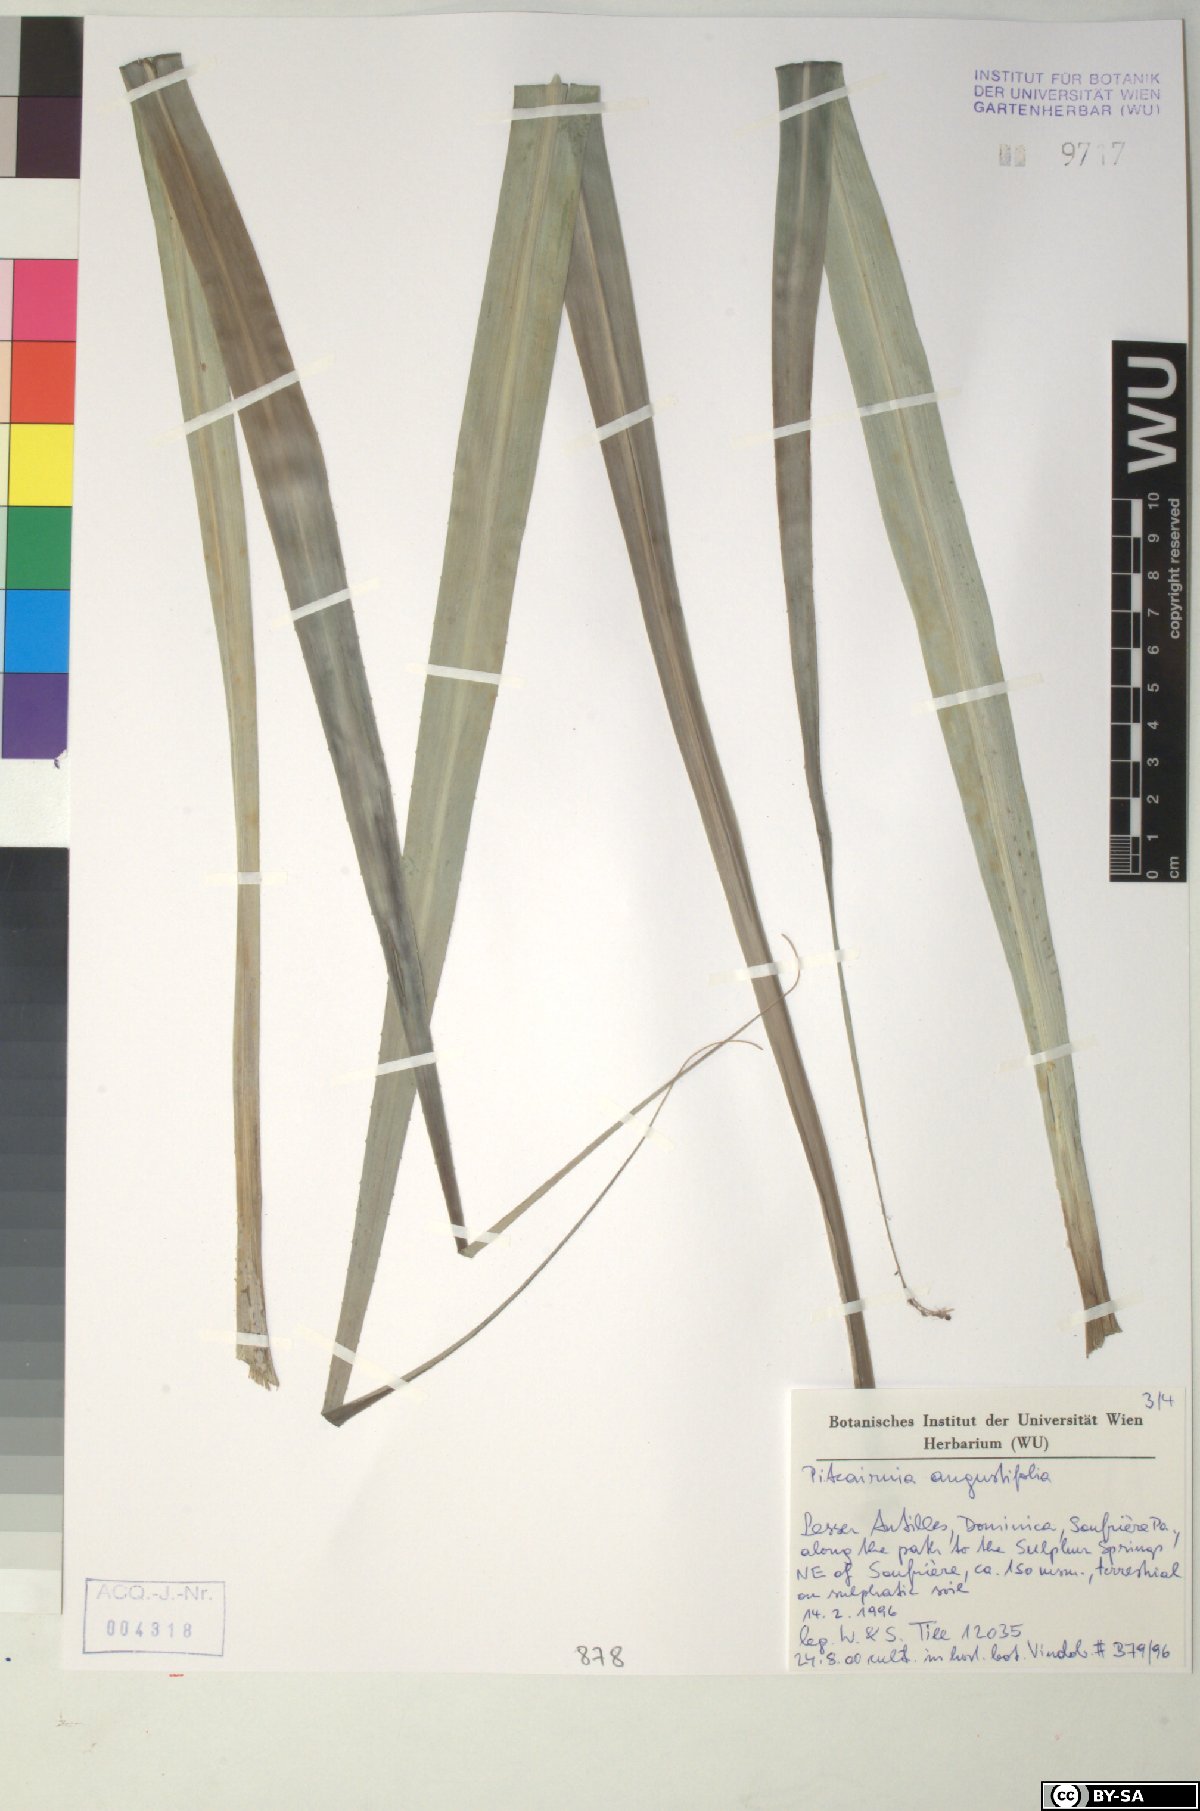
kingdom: Plantae
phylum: Tracheophyta
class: Liliopsida
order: Poales
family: Bromeliaceae
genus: Pitcairnia
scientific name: Pitcairnia angustifolia
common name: Clapper
